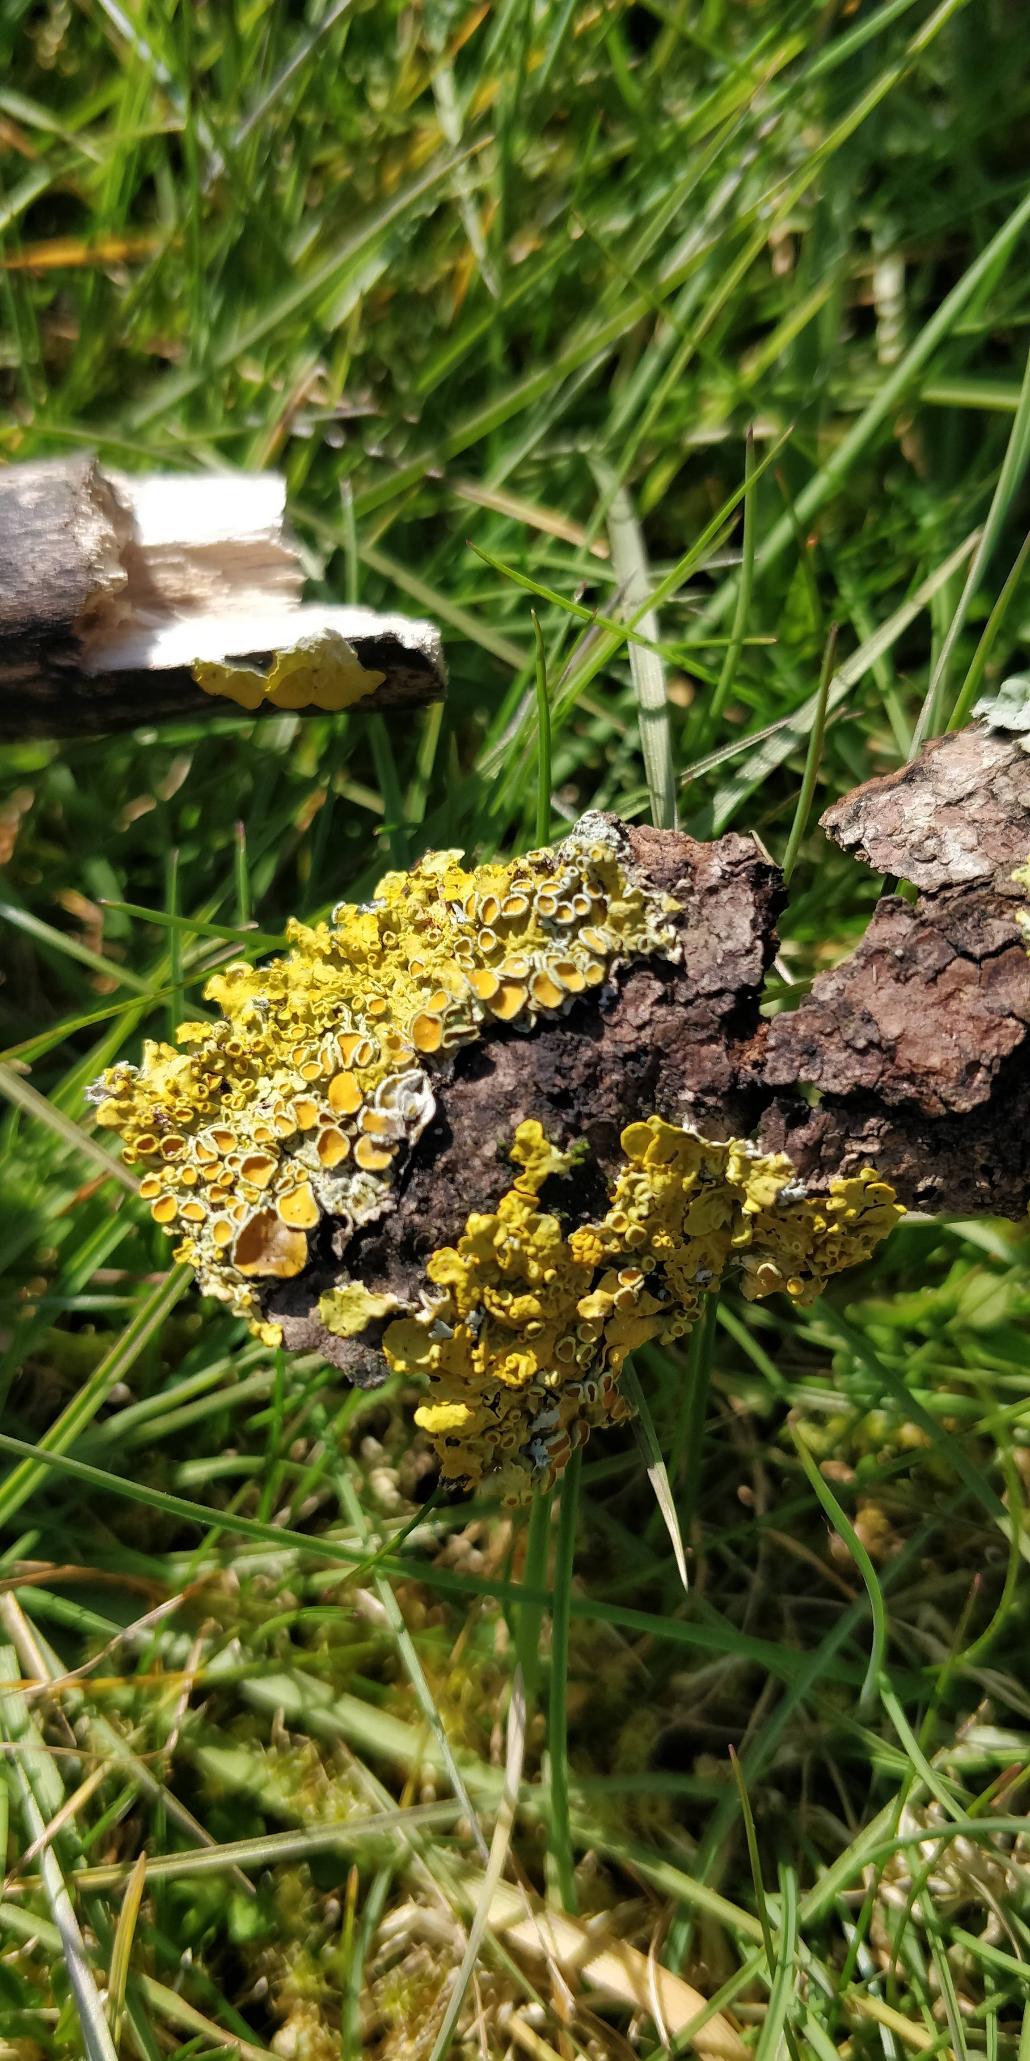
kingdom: Fungi
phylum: Ascomycota
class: Lecanoromycetes
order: Teloschistales
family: Teloschistaceae
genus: Xanthoria
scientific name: Xanthoria parietina
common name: Almindelig væggelav
